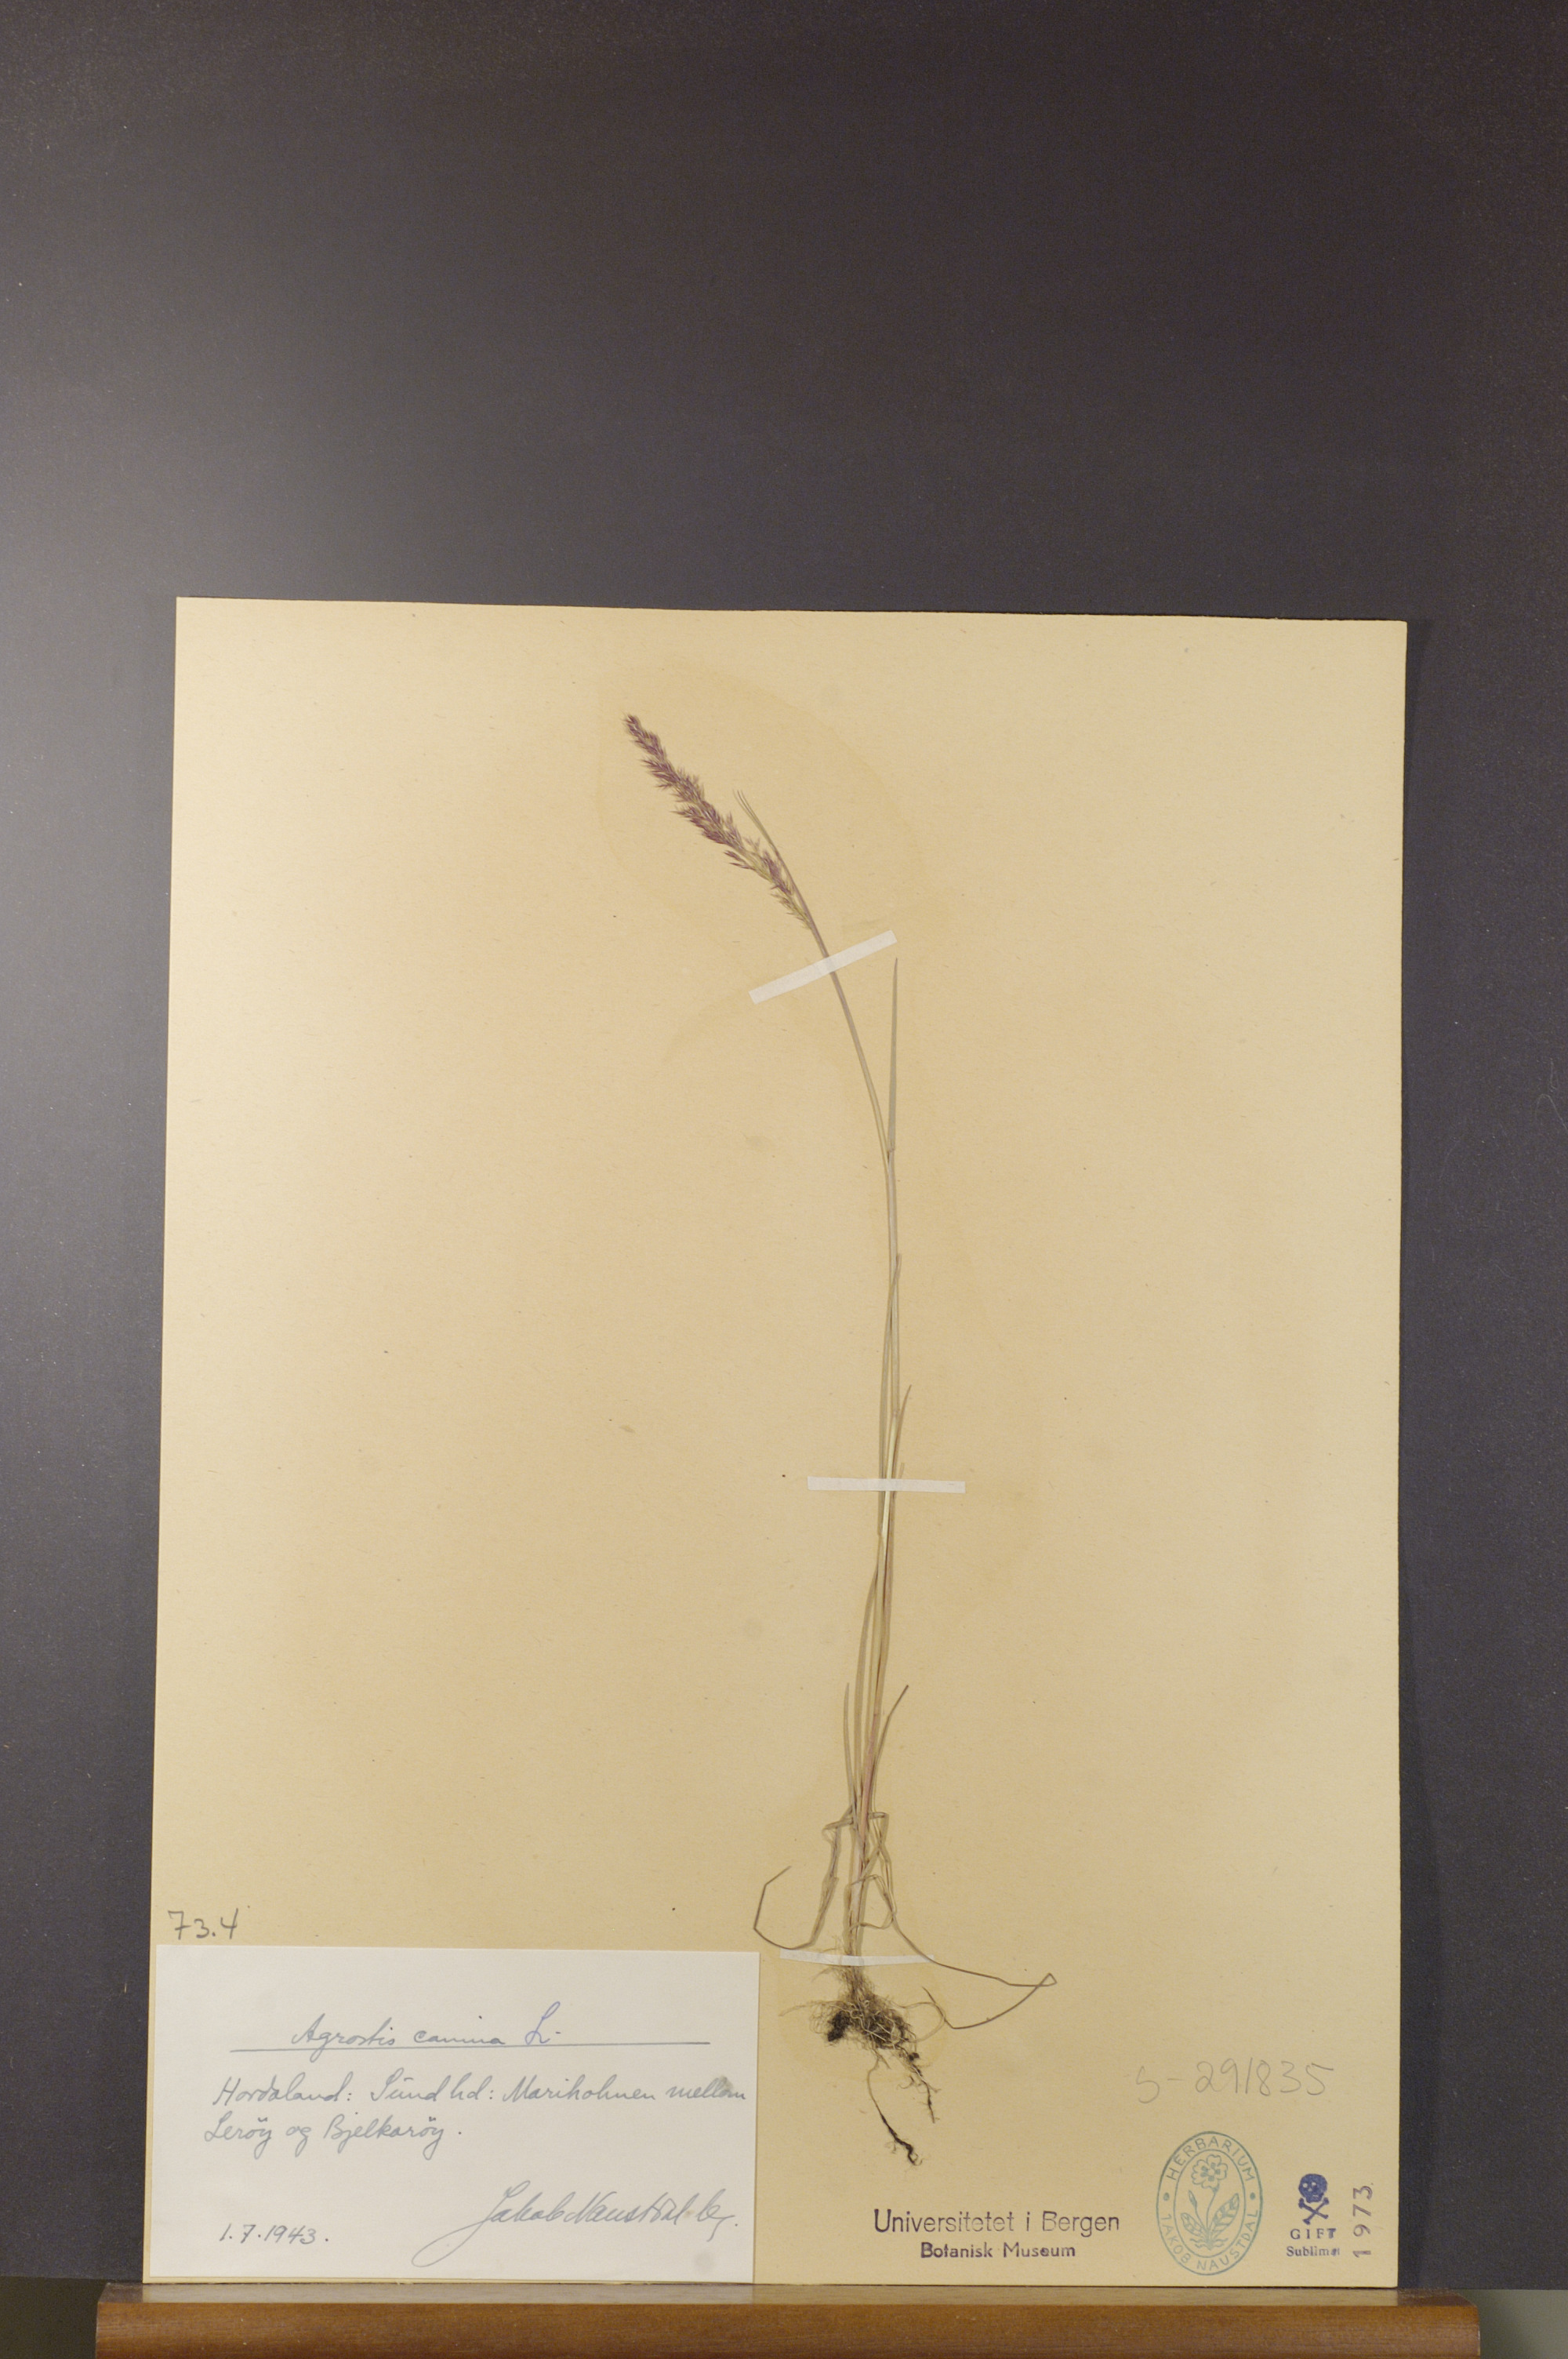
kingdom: Plantae
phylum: Tracheophyta
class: Liliopsida
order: Poales
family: Poaceae
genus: Agrostis
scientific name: Agrostis canina
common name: Velvet bent
